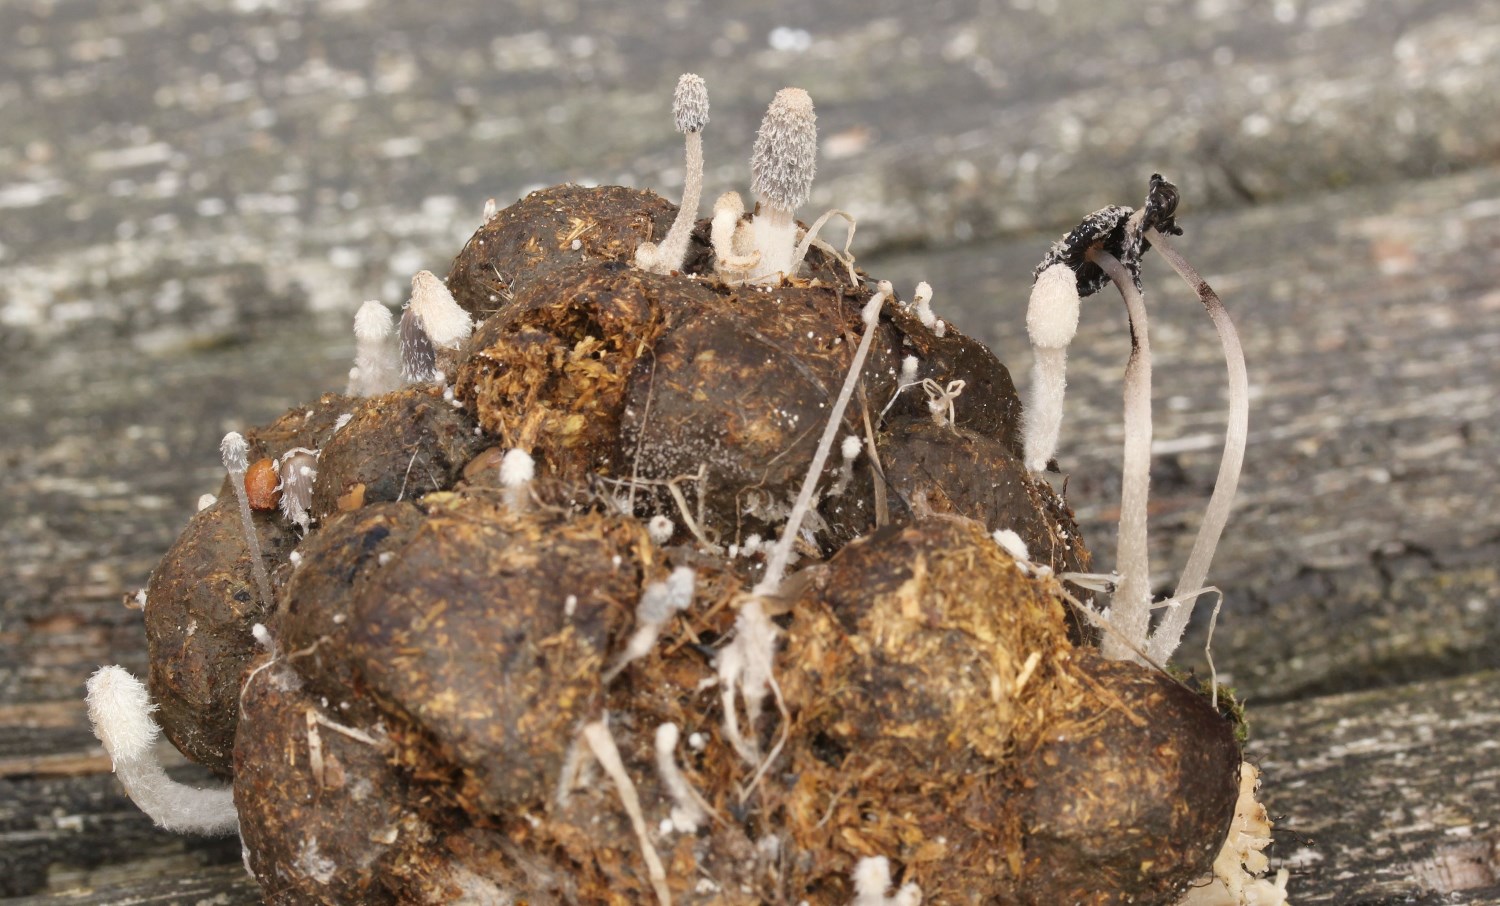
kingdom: Fungi
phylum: Basidiomycota
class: Agaricomycetes
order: Agaricales
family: Psathyrellaceae
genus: Coprinopsis
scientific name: Coprinopsis
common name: blækhat
